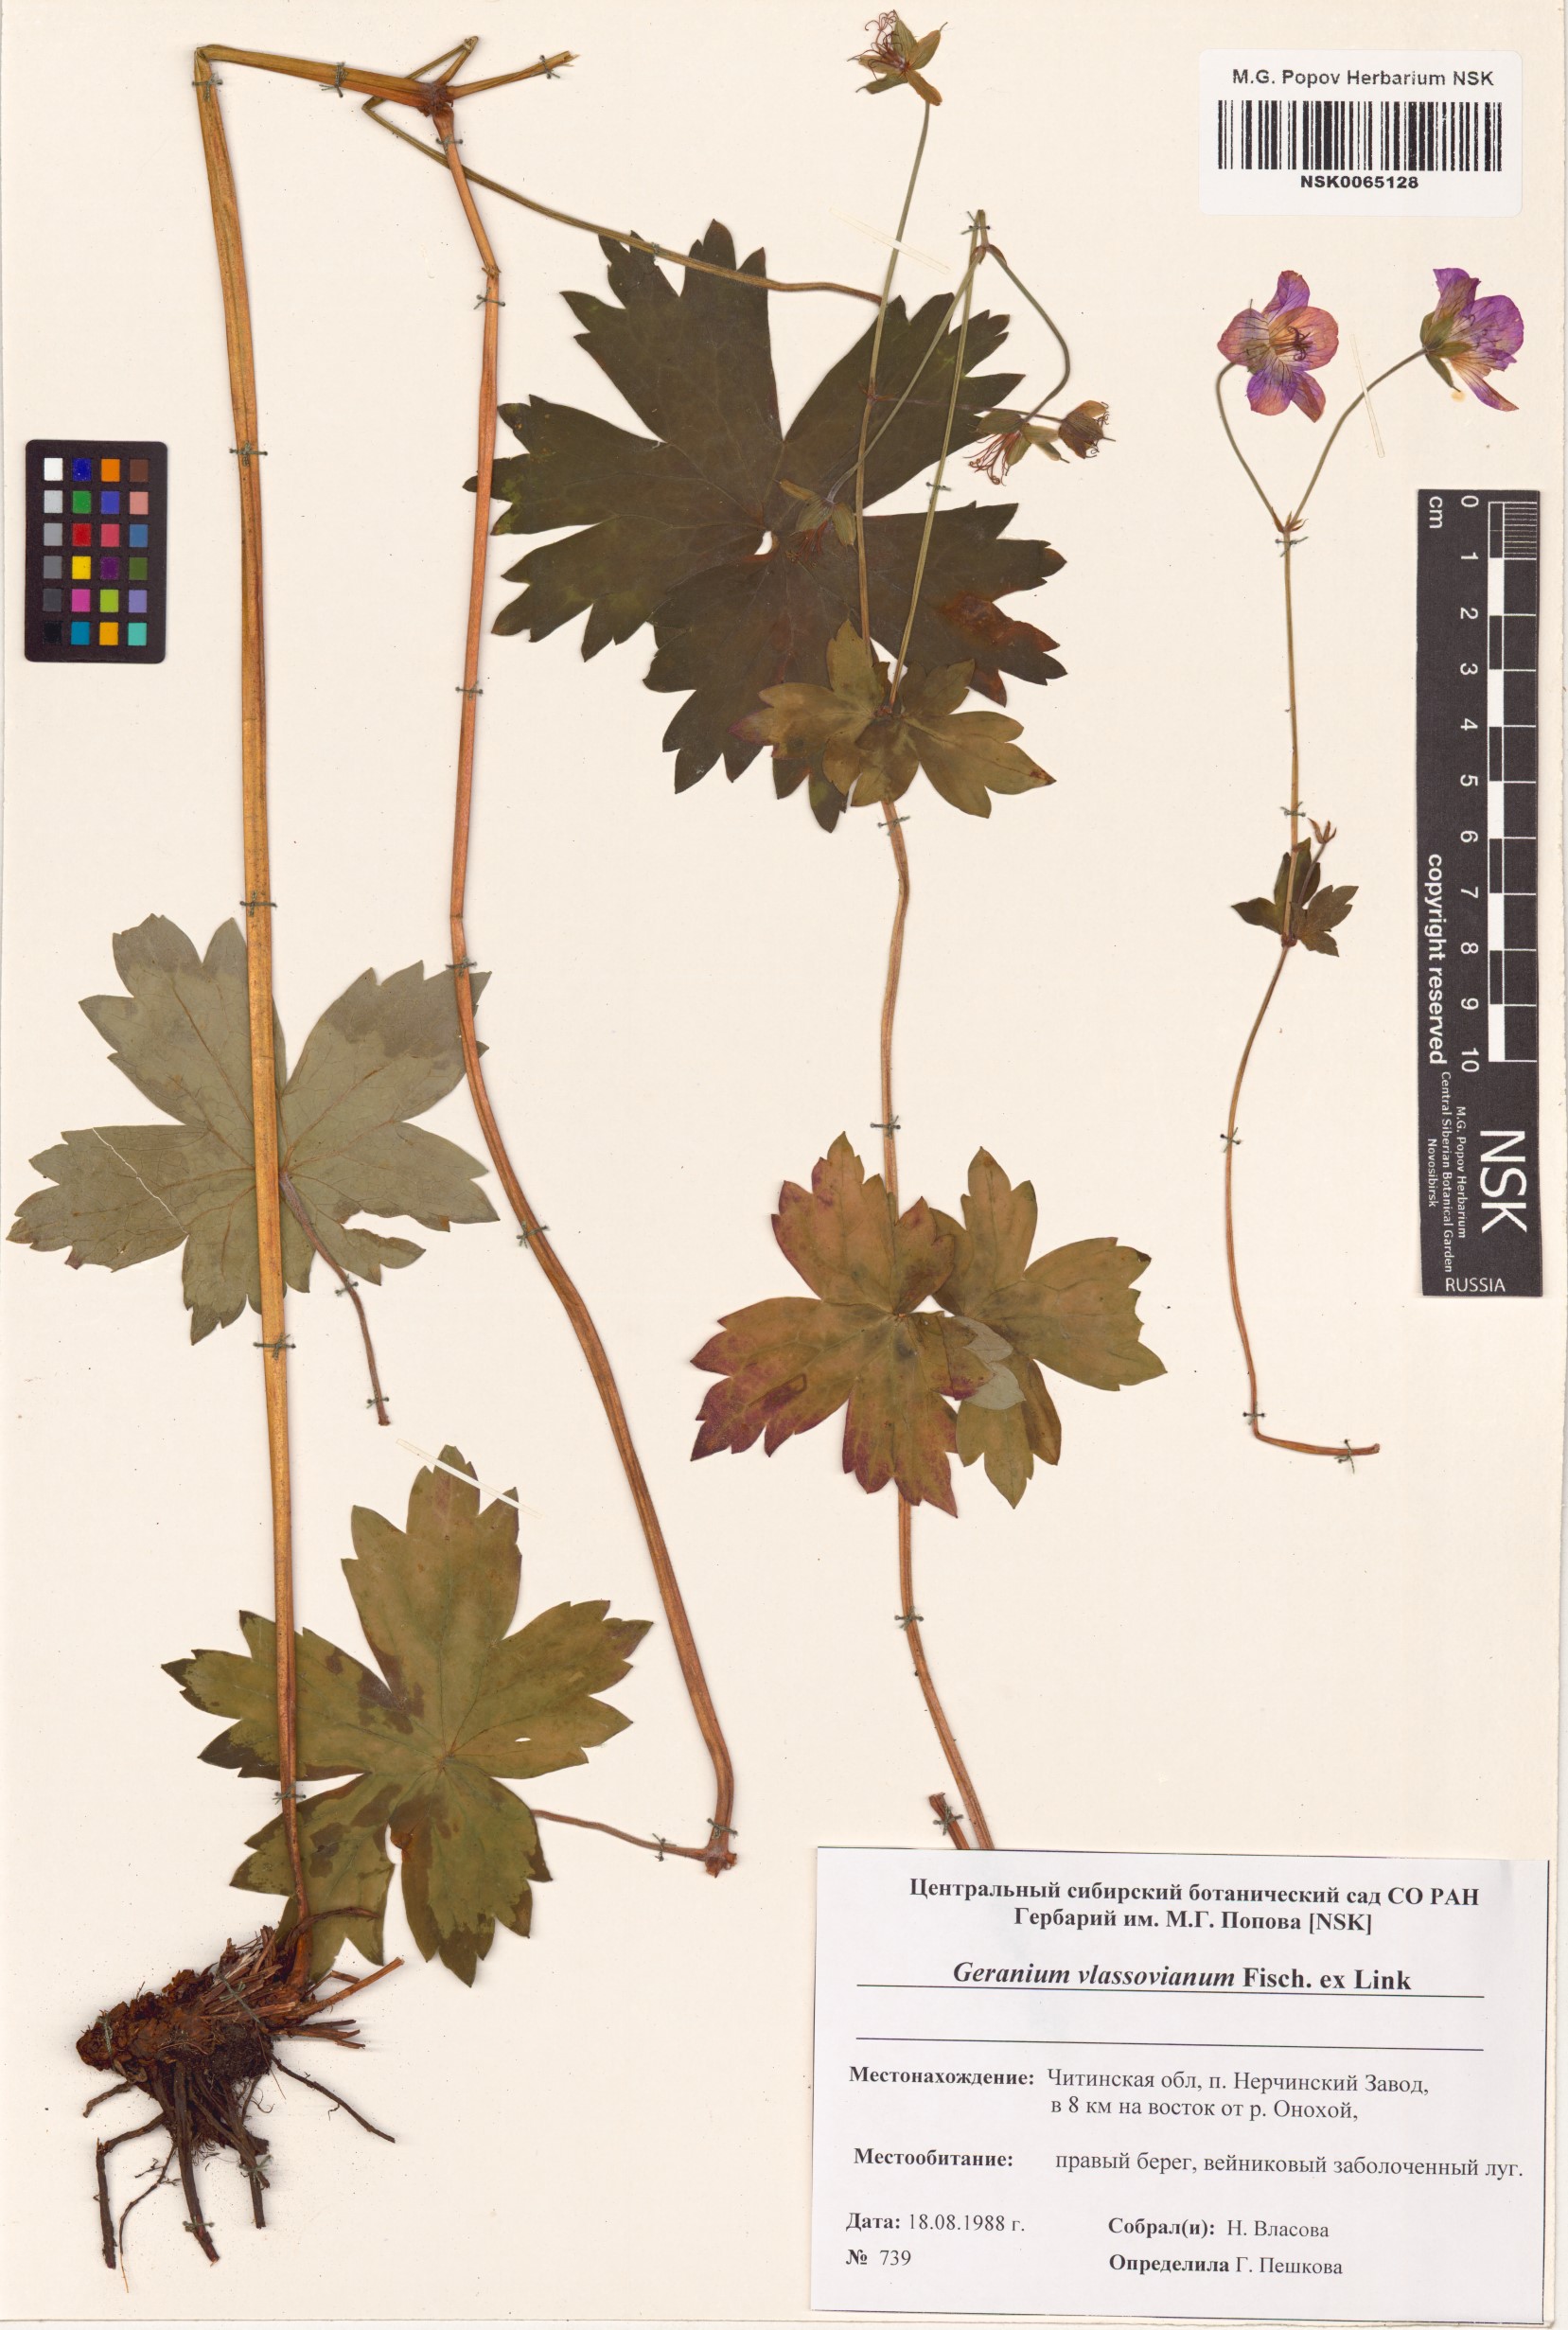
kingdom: Plantae
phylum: Tracheophyta
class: Magnoliopsida
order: Geraniales
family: Geraniaceae
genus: Geranium
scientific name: Geranium wlassovianum
